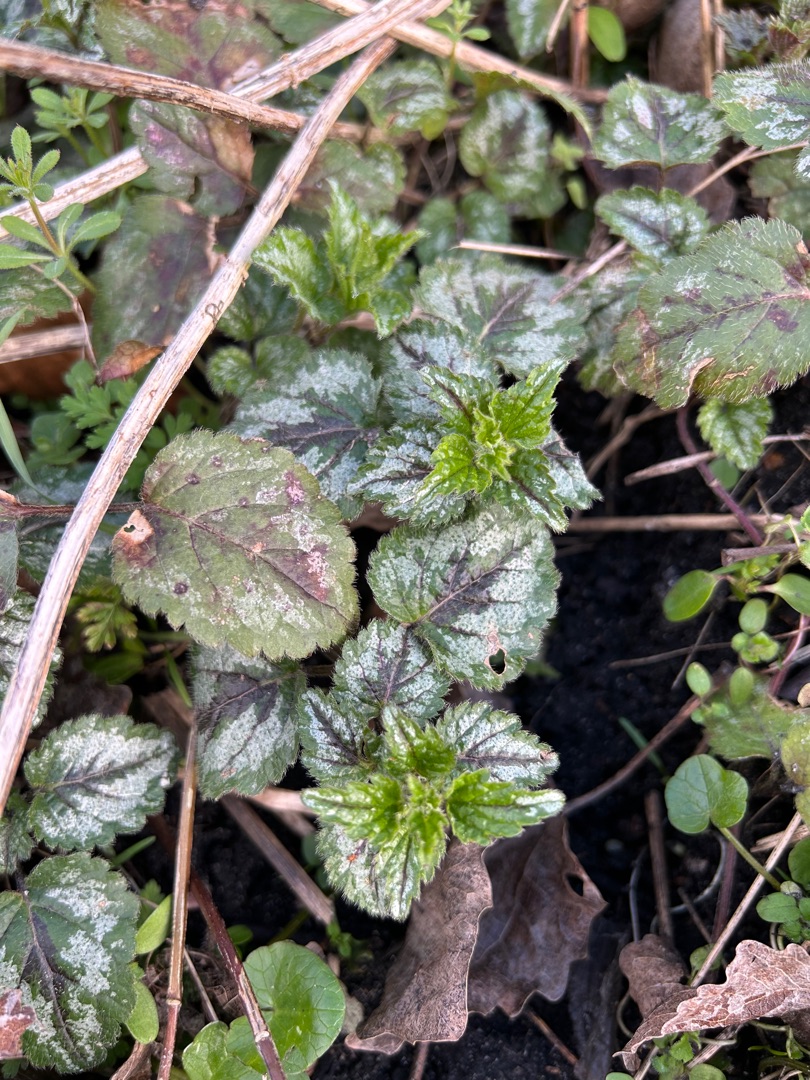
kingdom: Plantae
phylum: Tracheophyta
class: Magnoliopsida
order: Lamiales
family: Lamiaceae
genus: Lamium
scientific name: Lamium galeobdolon
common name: Have-guldnælde
